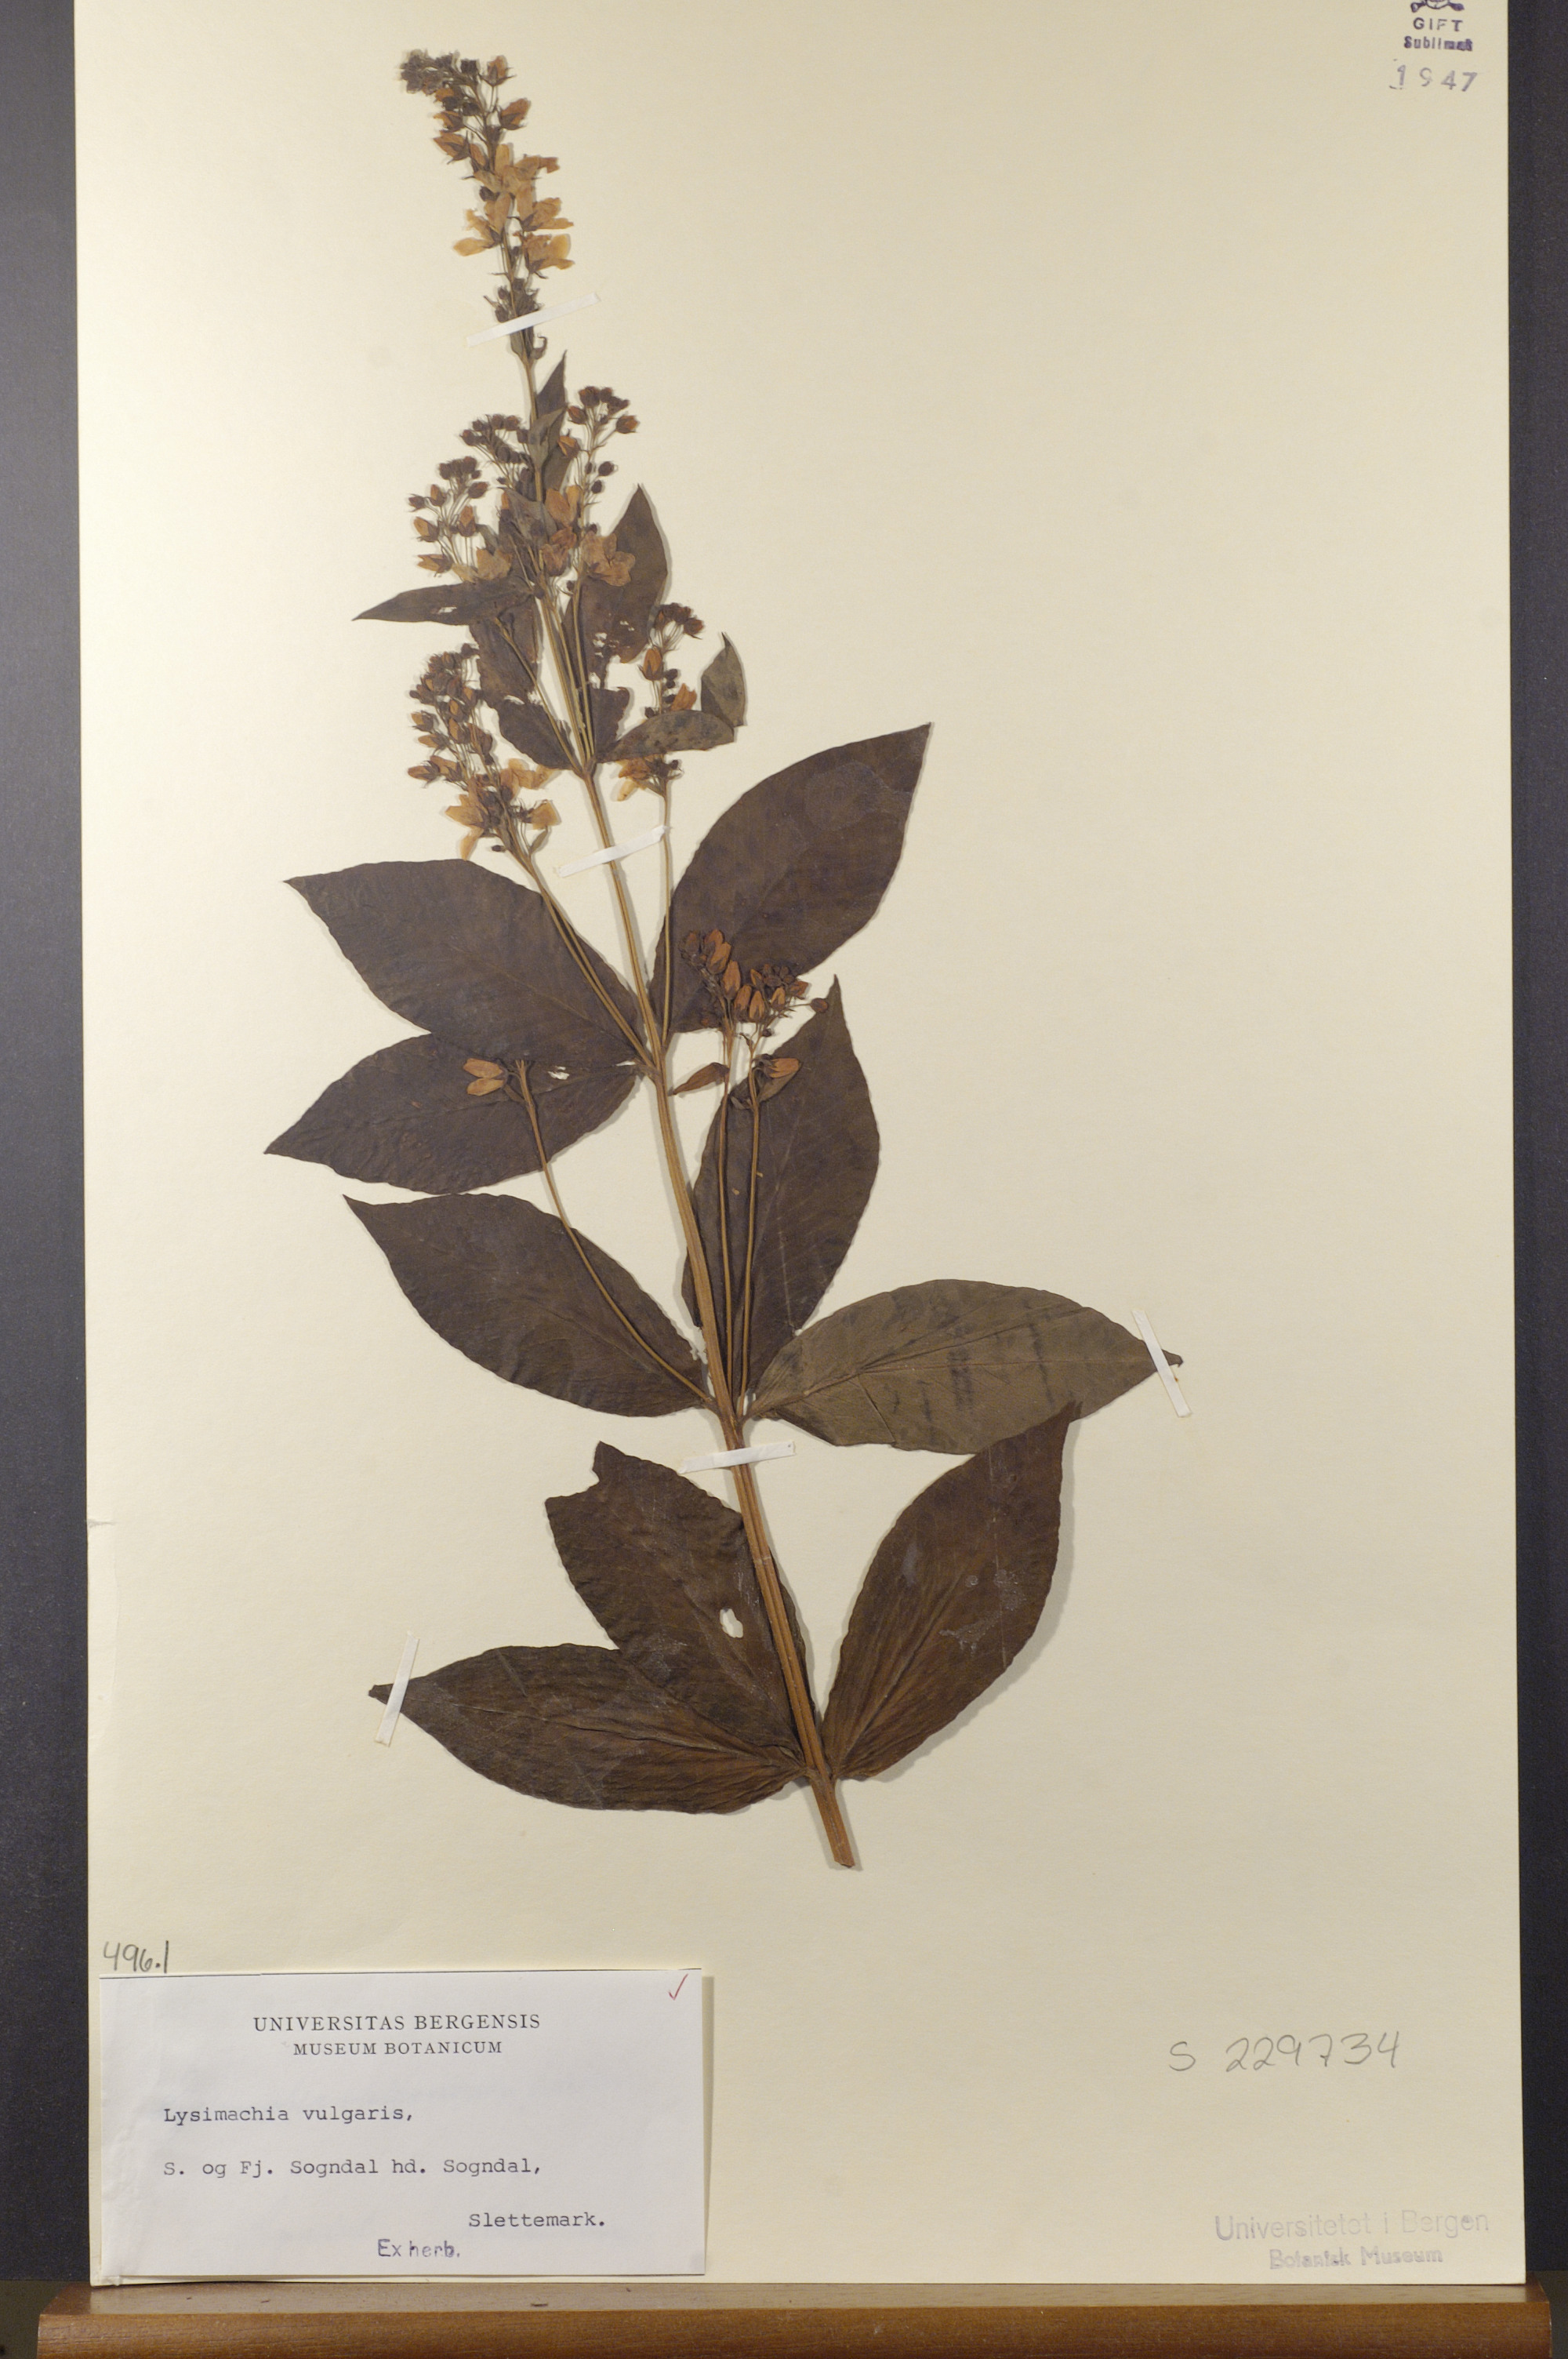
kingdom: Plantae
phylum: Tracheophyta
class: Magnoliopsida
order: Ericales
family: Primulaceae
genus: Lysimachia
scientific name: Lysimachia vulgaris
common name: Yellow loosestrife
